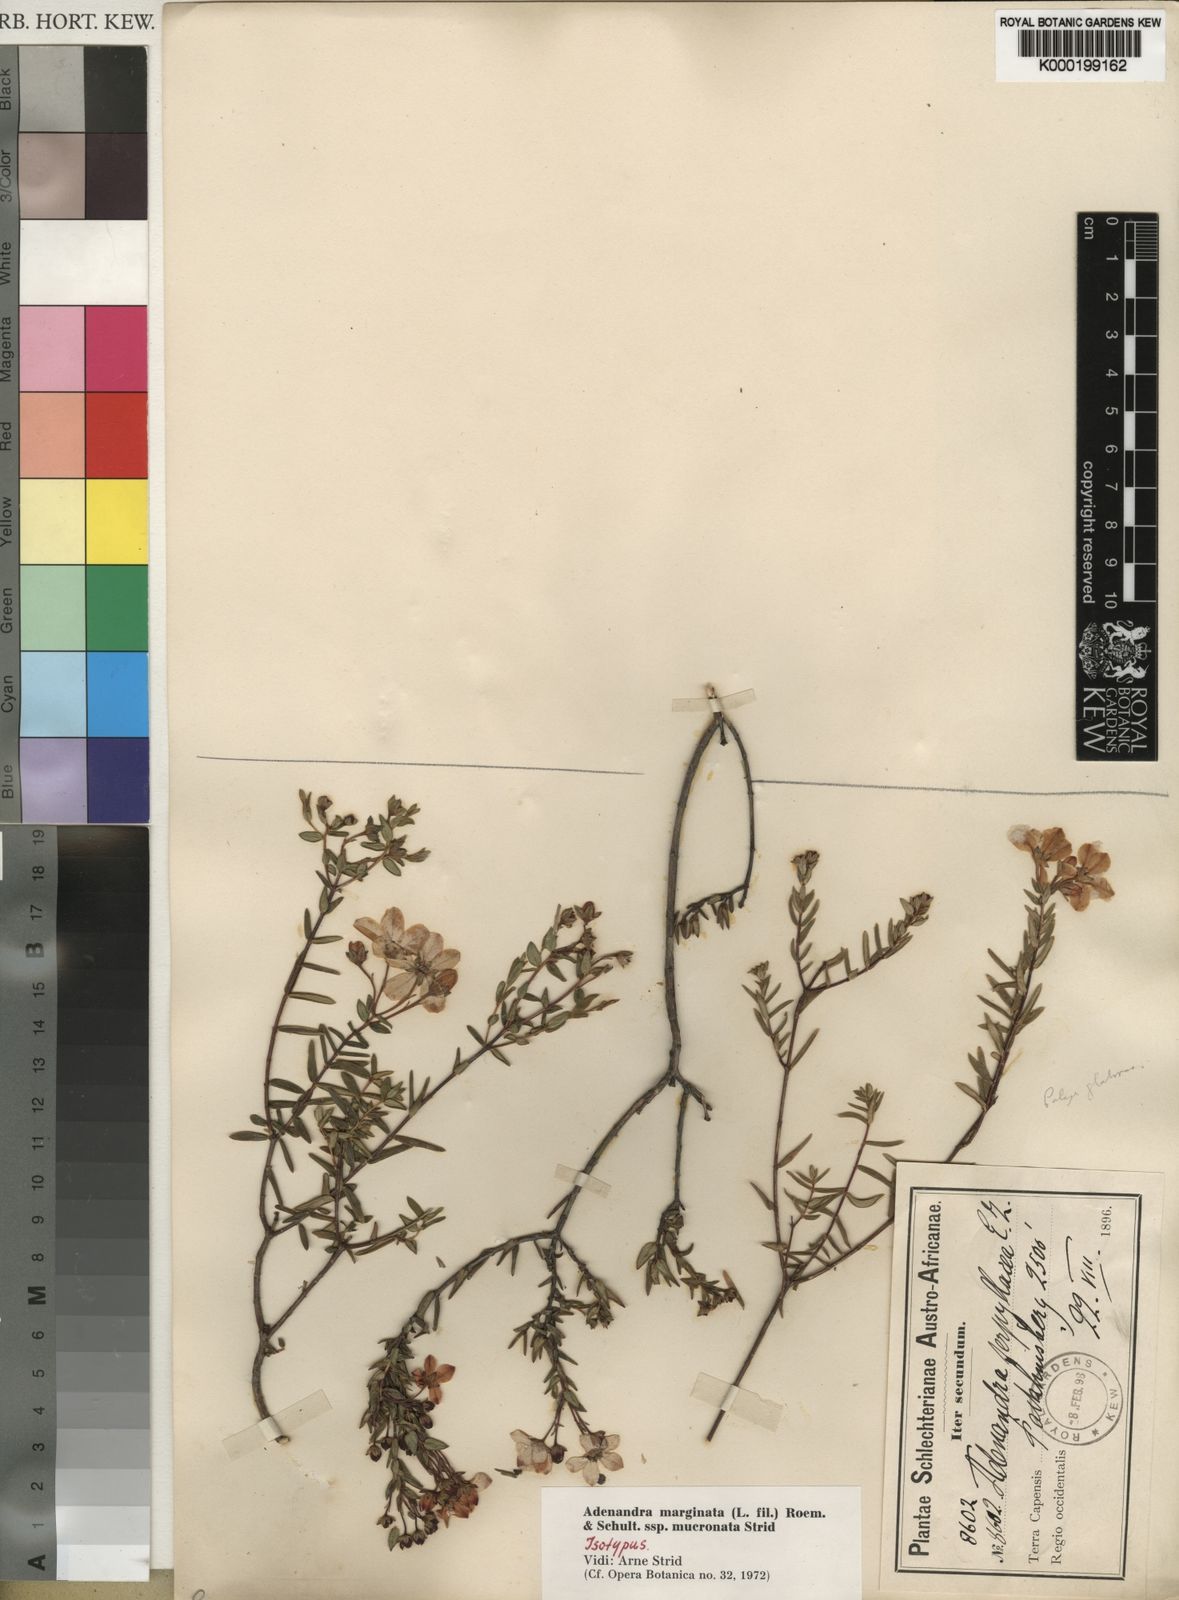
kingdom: Plantae
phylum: Tracheophyta
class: Magnoliopsida
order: Sapindales
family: Rutaceae
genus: Adenandra
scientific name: Adenandra marginata
